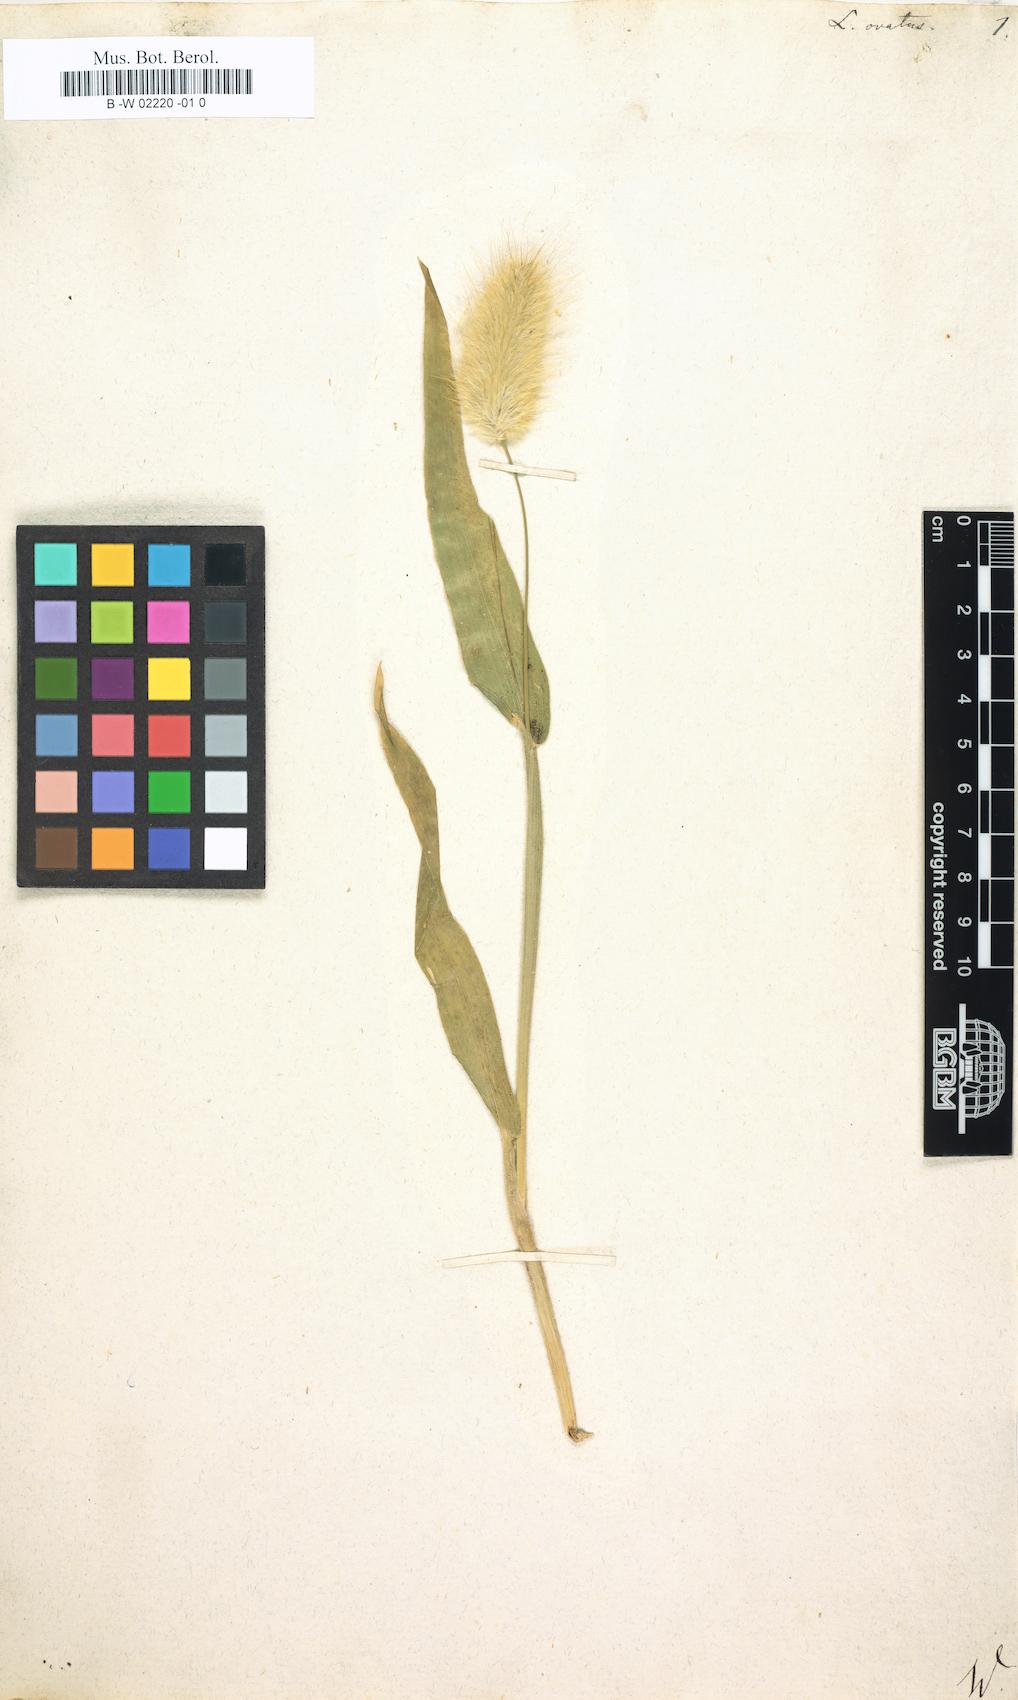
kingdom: Plantae
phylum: Tracheophyta
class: Liliopsida
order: Poales
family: Poaceae
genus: Lagurus
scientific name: Lagurus ovatus
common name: Hare's-tail
